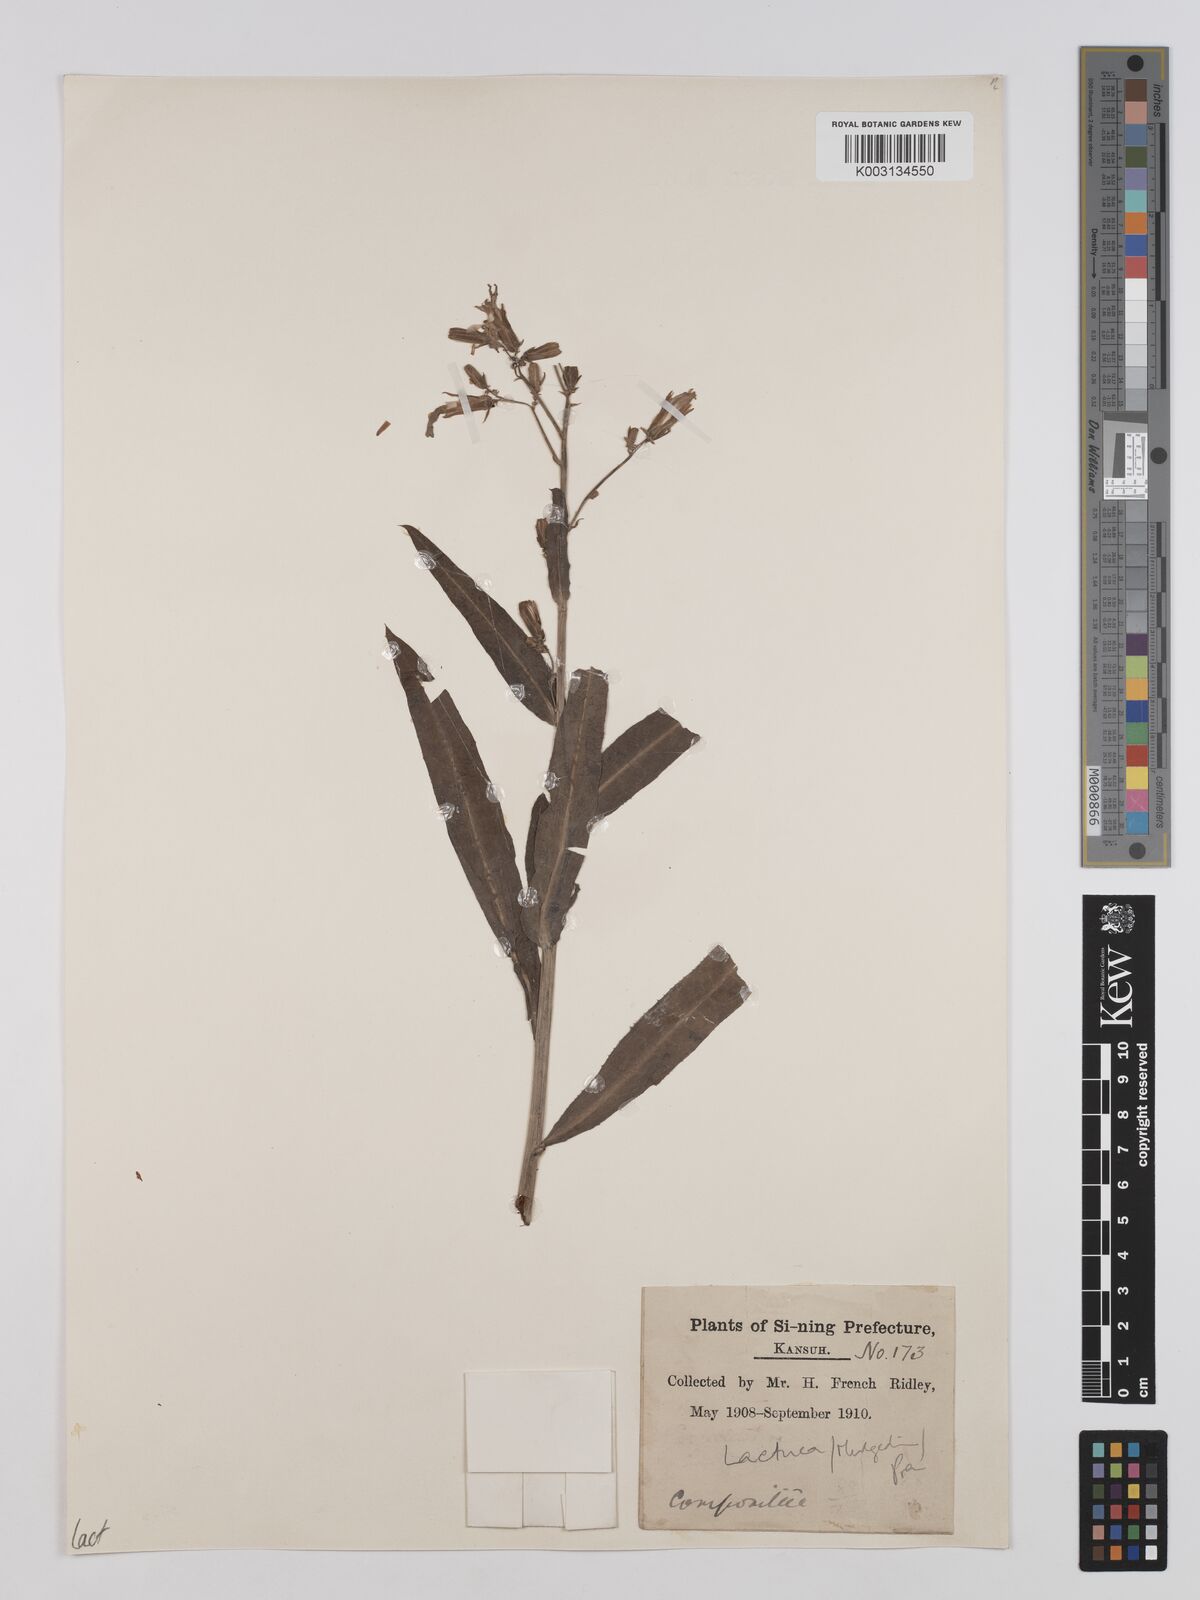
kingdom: Plantae
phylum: Tracheophyta
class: Magnoliopsida
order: Asterales
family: Asteraceae
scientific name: Asteraceae
